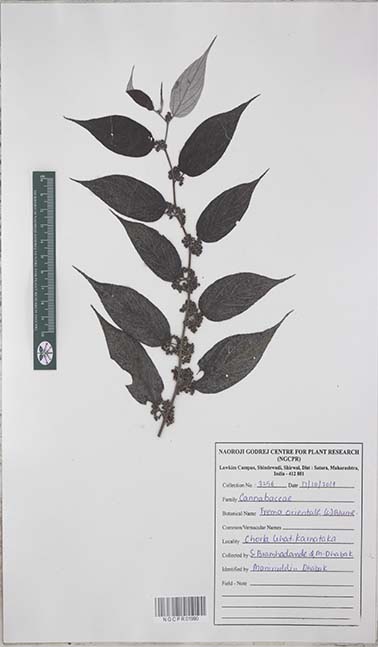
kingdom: Plantae
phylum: Tracheophyta
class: Magnoliopsida
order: Rosales
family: Cannabaceae
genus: Trema
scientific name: Trema orientale
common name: Indian charcoal tree
